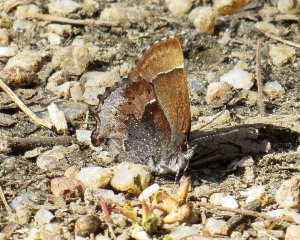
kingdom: Animalia
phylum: Arthropoda
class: Insecta
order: Lepidoptera
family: Lycaenidae
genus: Incisalia
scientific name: Incisalia henrici
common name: Henry's Elfin
